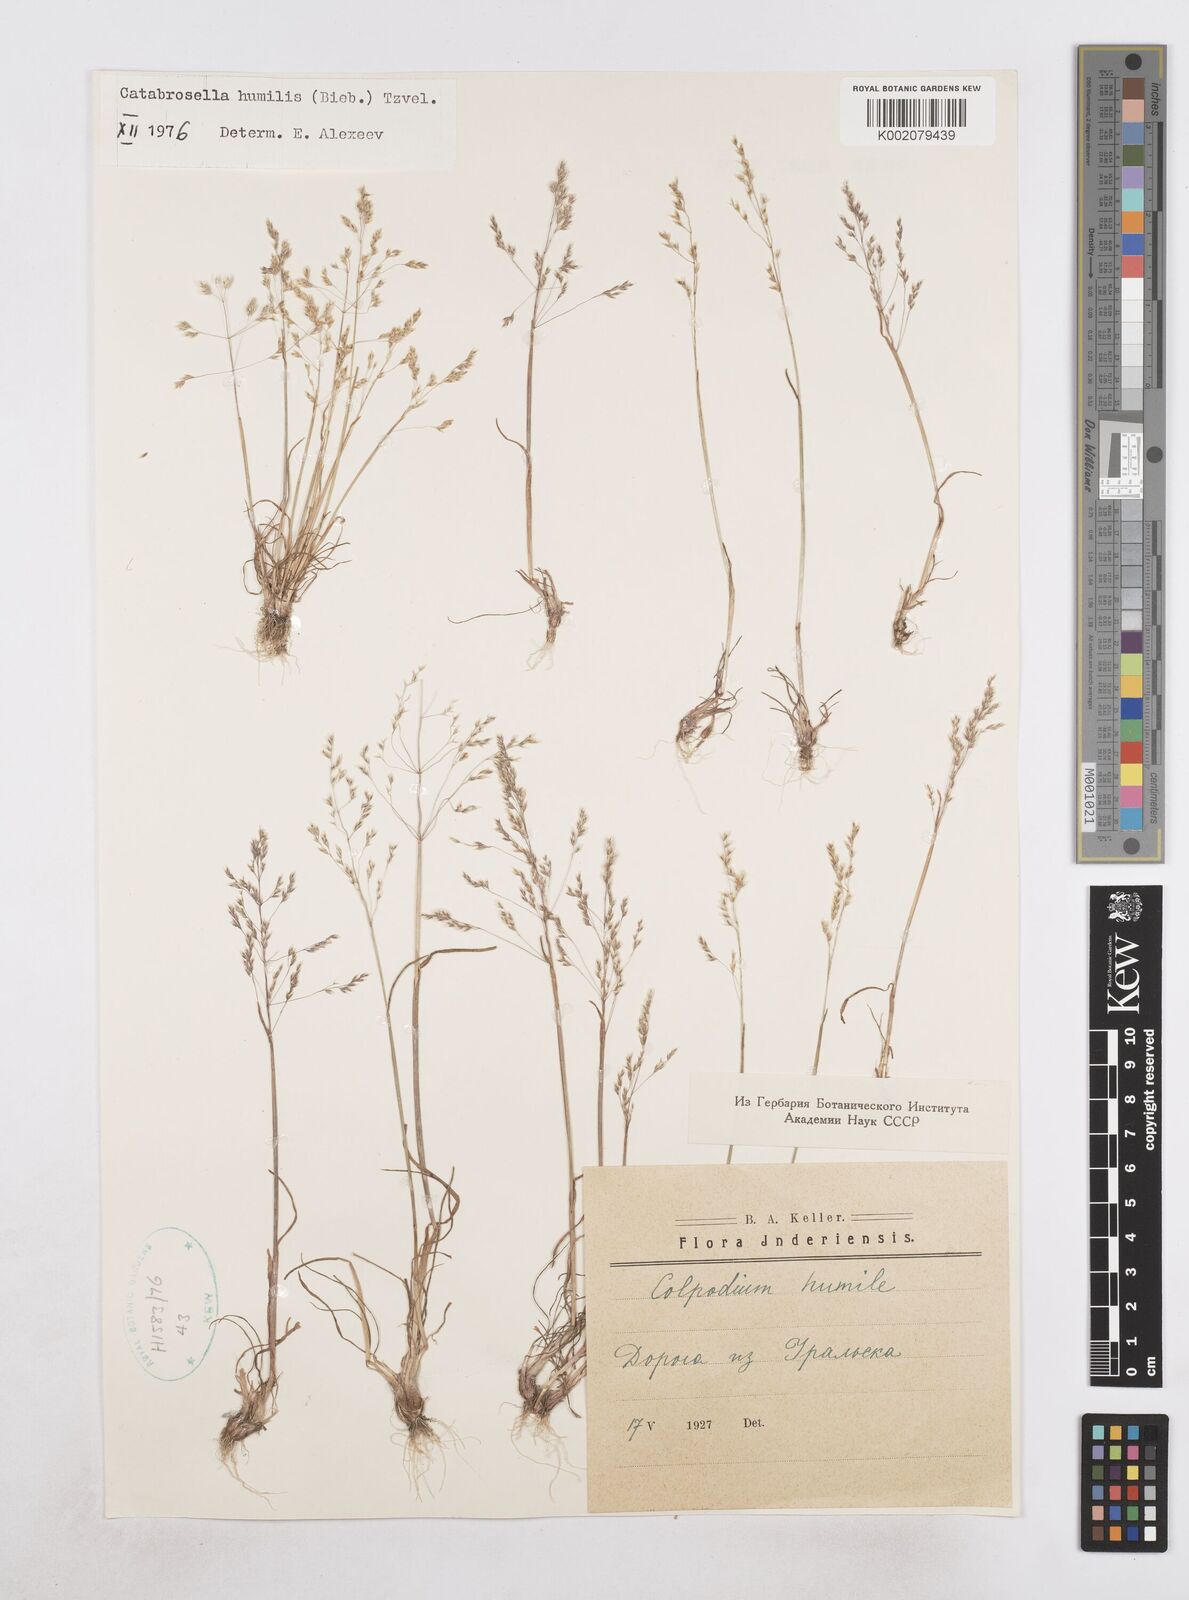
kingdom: Plantae
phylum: Tracheophyta
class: Liliopsida
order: Poales
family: Poaceae
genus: Catabrosella
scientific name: Catabrosella humilis
